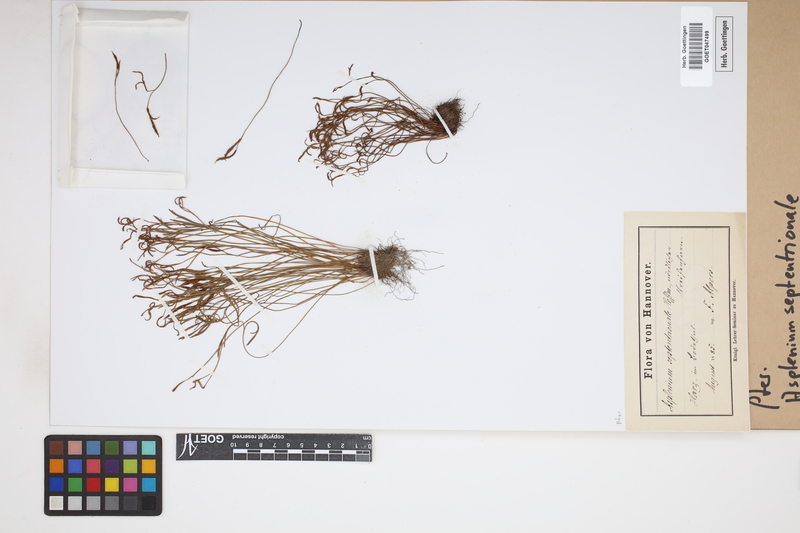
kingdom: Plantae
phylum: Tracheophyta
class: Polypodiopsida
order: Polypodiales
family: Aspleniaceae
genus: Asplenium
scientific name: Asplenium septentrionale
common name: Forked spleenwort
